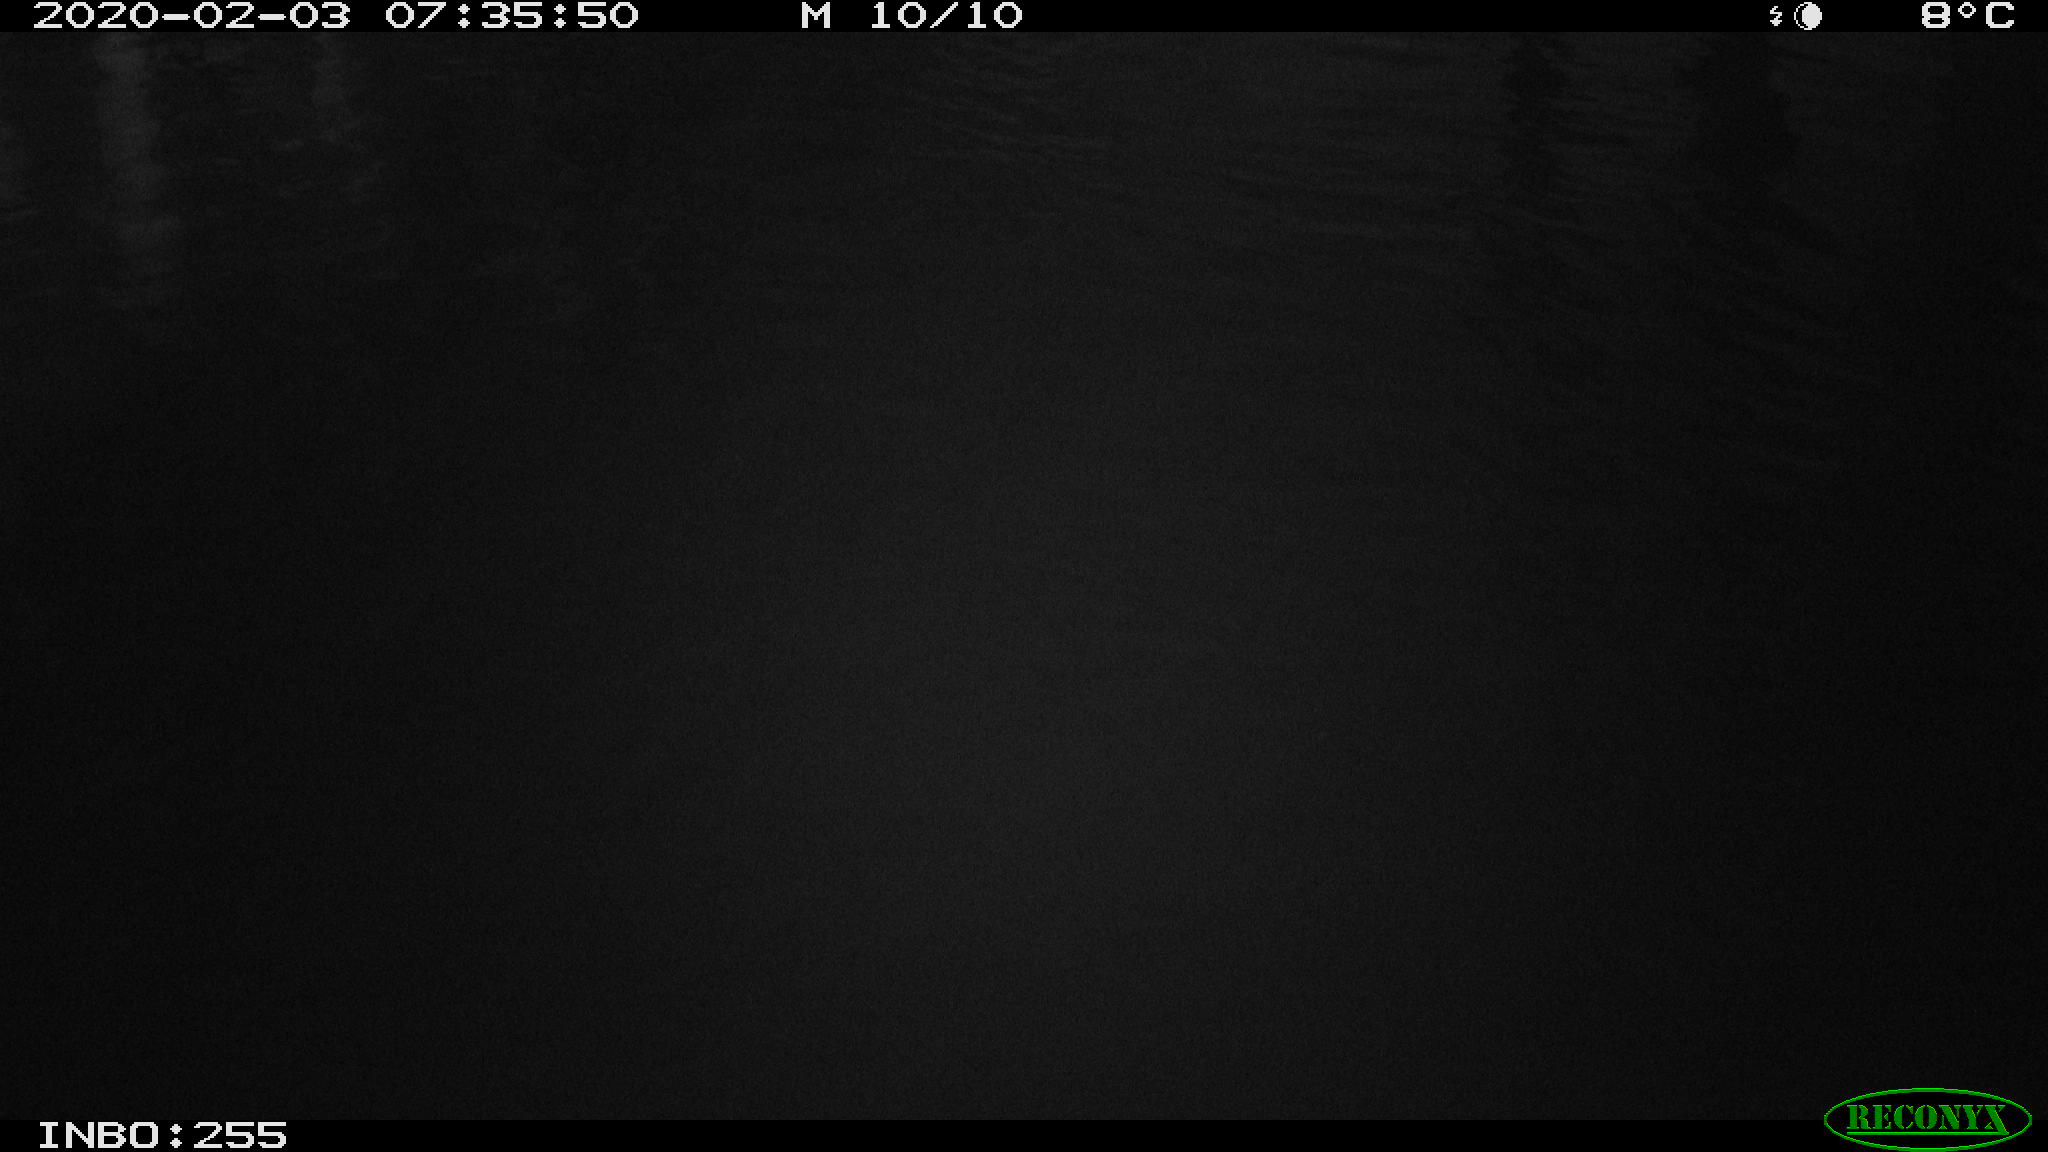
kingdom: Animalia
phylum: Chordata
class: Aves
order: Gruiformes
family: Rallidae
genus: Gallinula
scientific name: Gallinula chloropus
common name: Common moorhen
